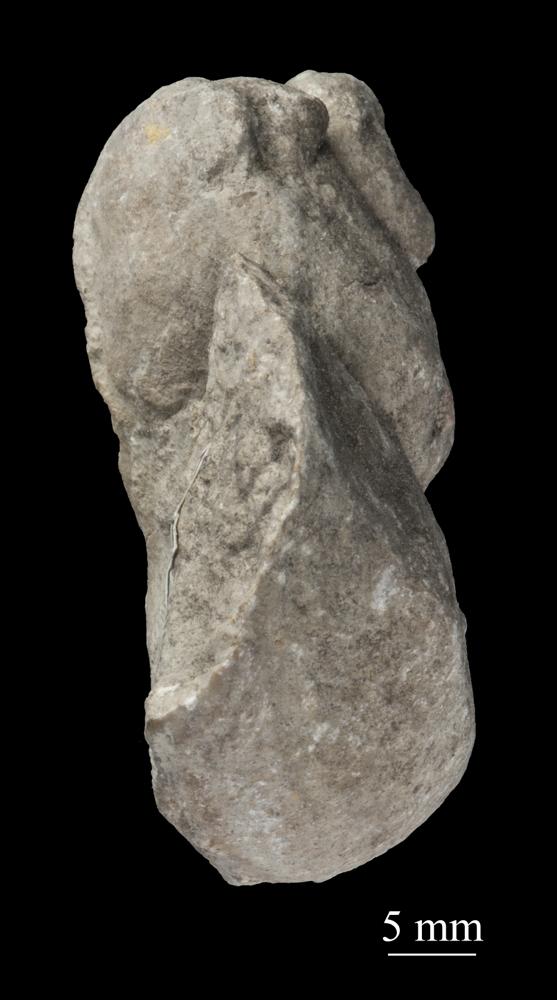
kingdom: Animalia
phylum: Mollusca
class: Gastropoda
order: Pleurotomariida
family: Phymatopleuridae
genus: Worthenia
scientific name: Worthenia
